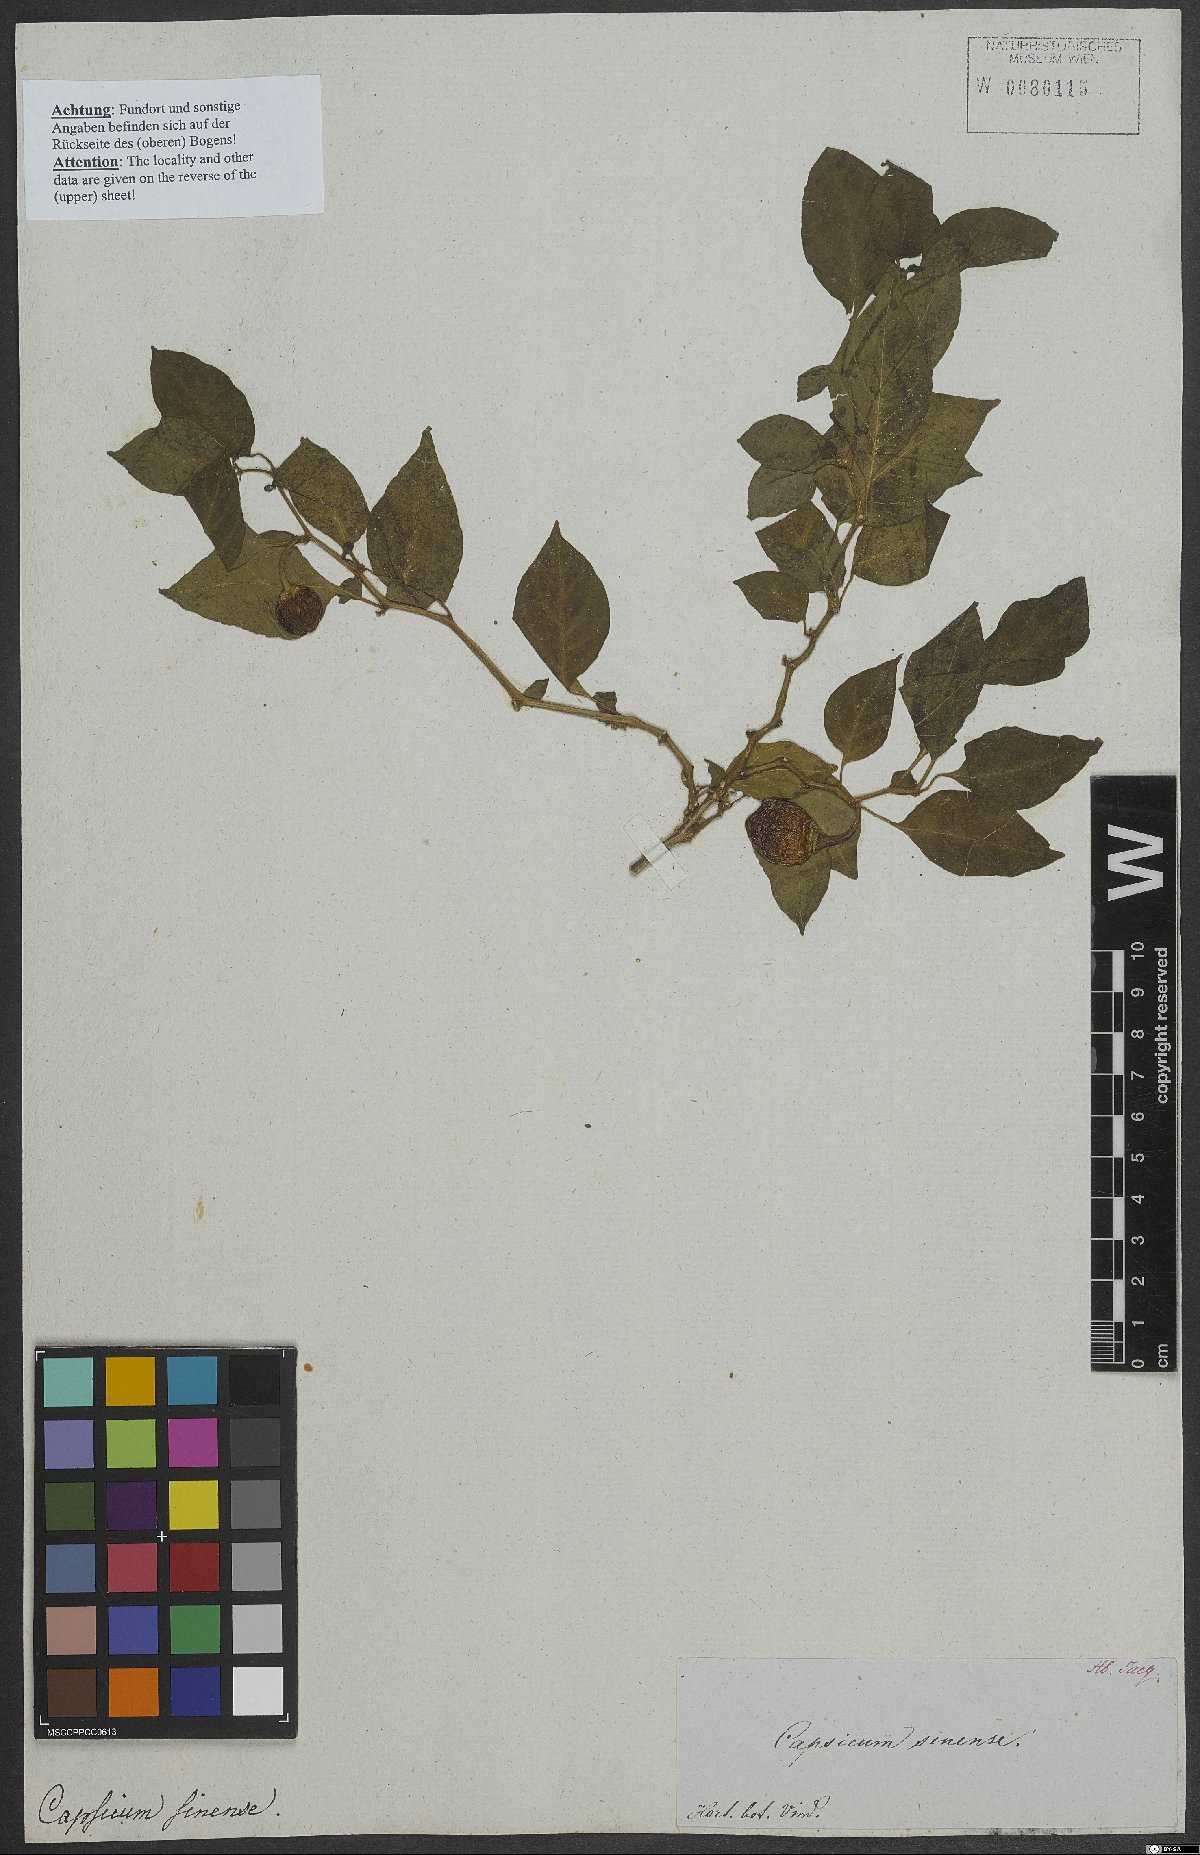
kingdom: Plantae
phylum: Tracheophyta
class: Magnoliopsida
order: Solanales
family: Solanaceae
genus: Capsicum
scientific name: Capsicum sinense
